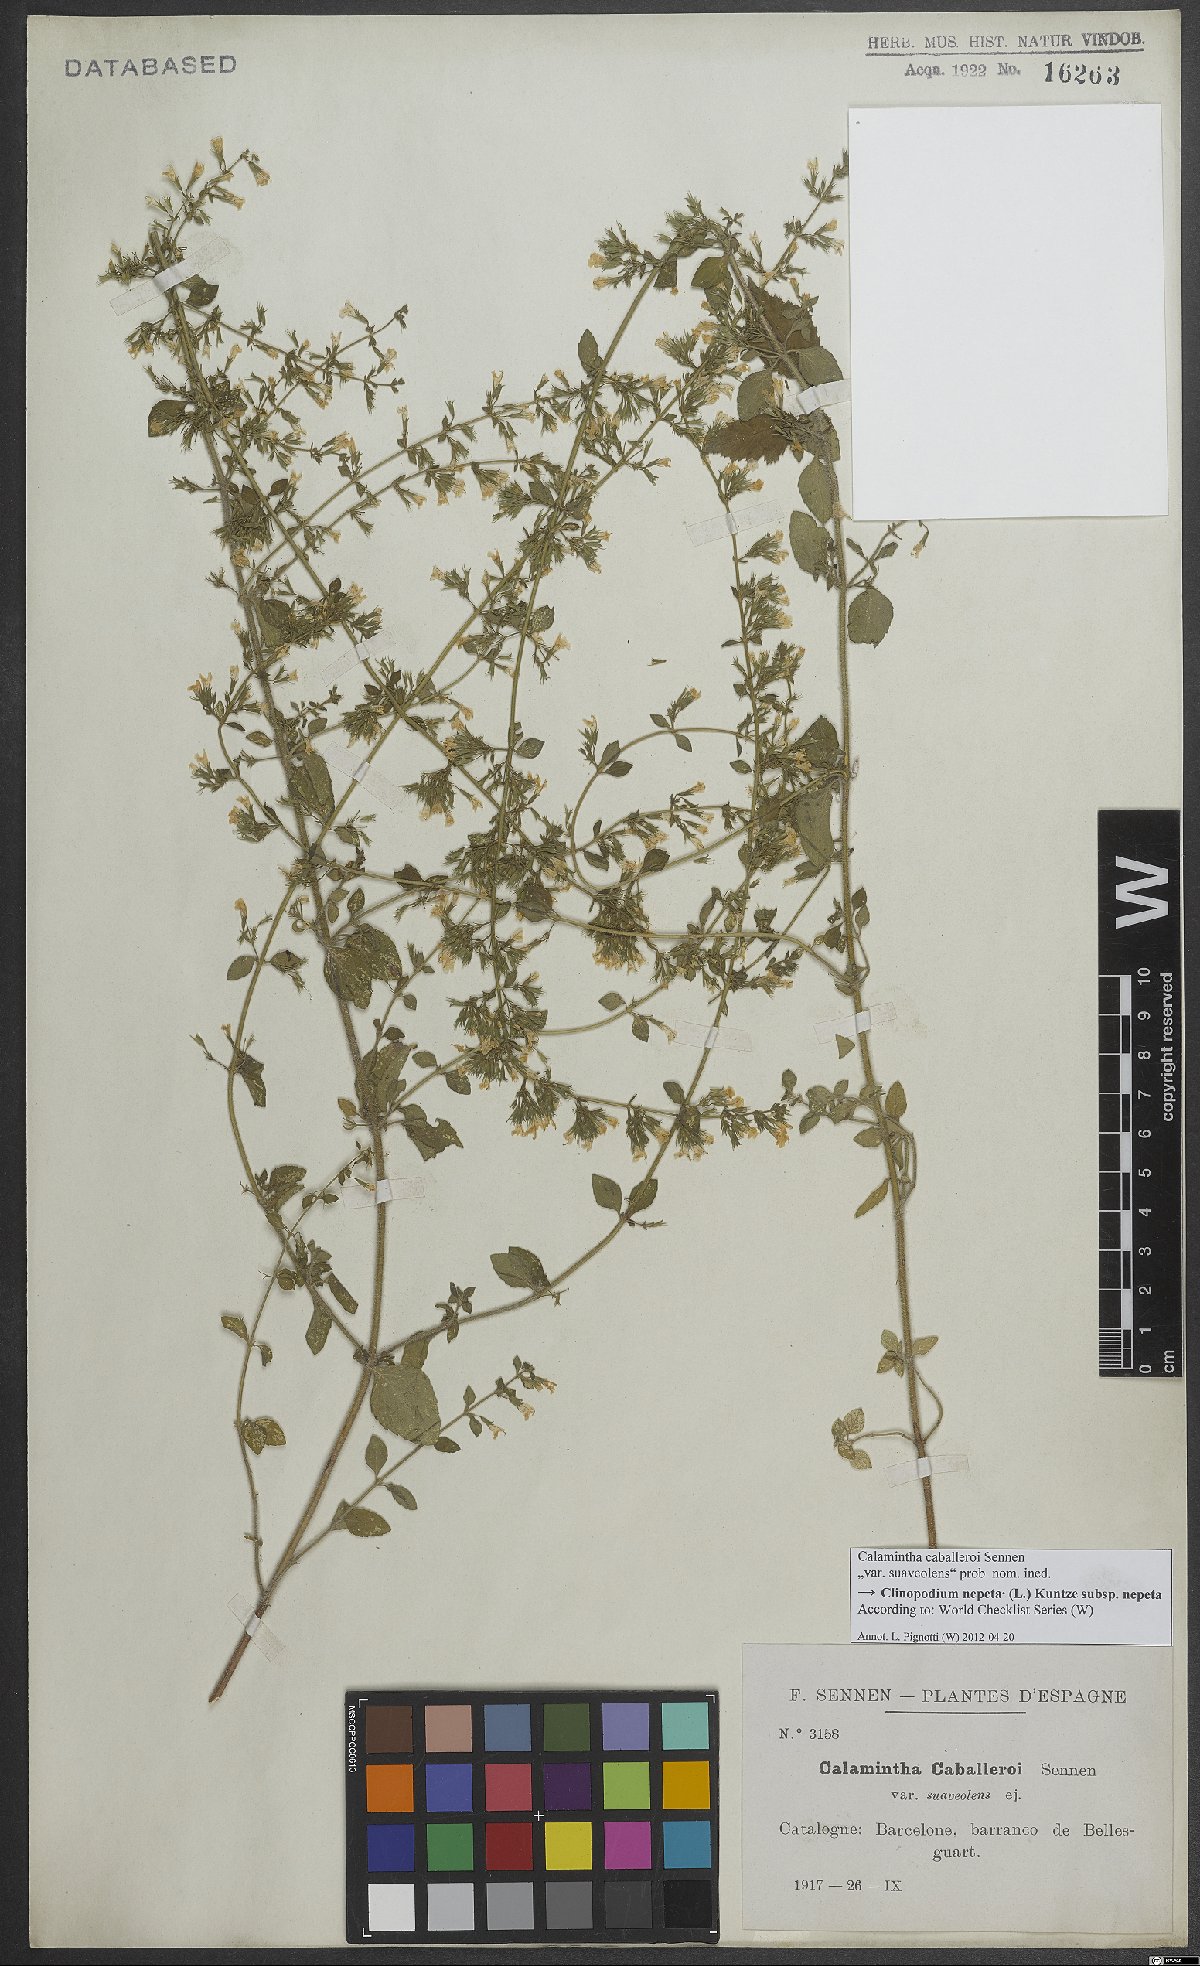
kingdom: Plantae
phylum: Tracheophyta
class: Magnoliopsida
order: Lamiales
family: Lamiaceae
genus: Clinopodium
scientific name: Clinopodium nepeta
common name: Lesser calamint
